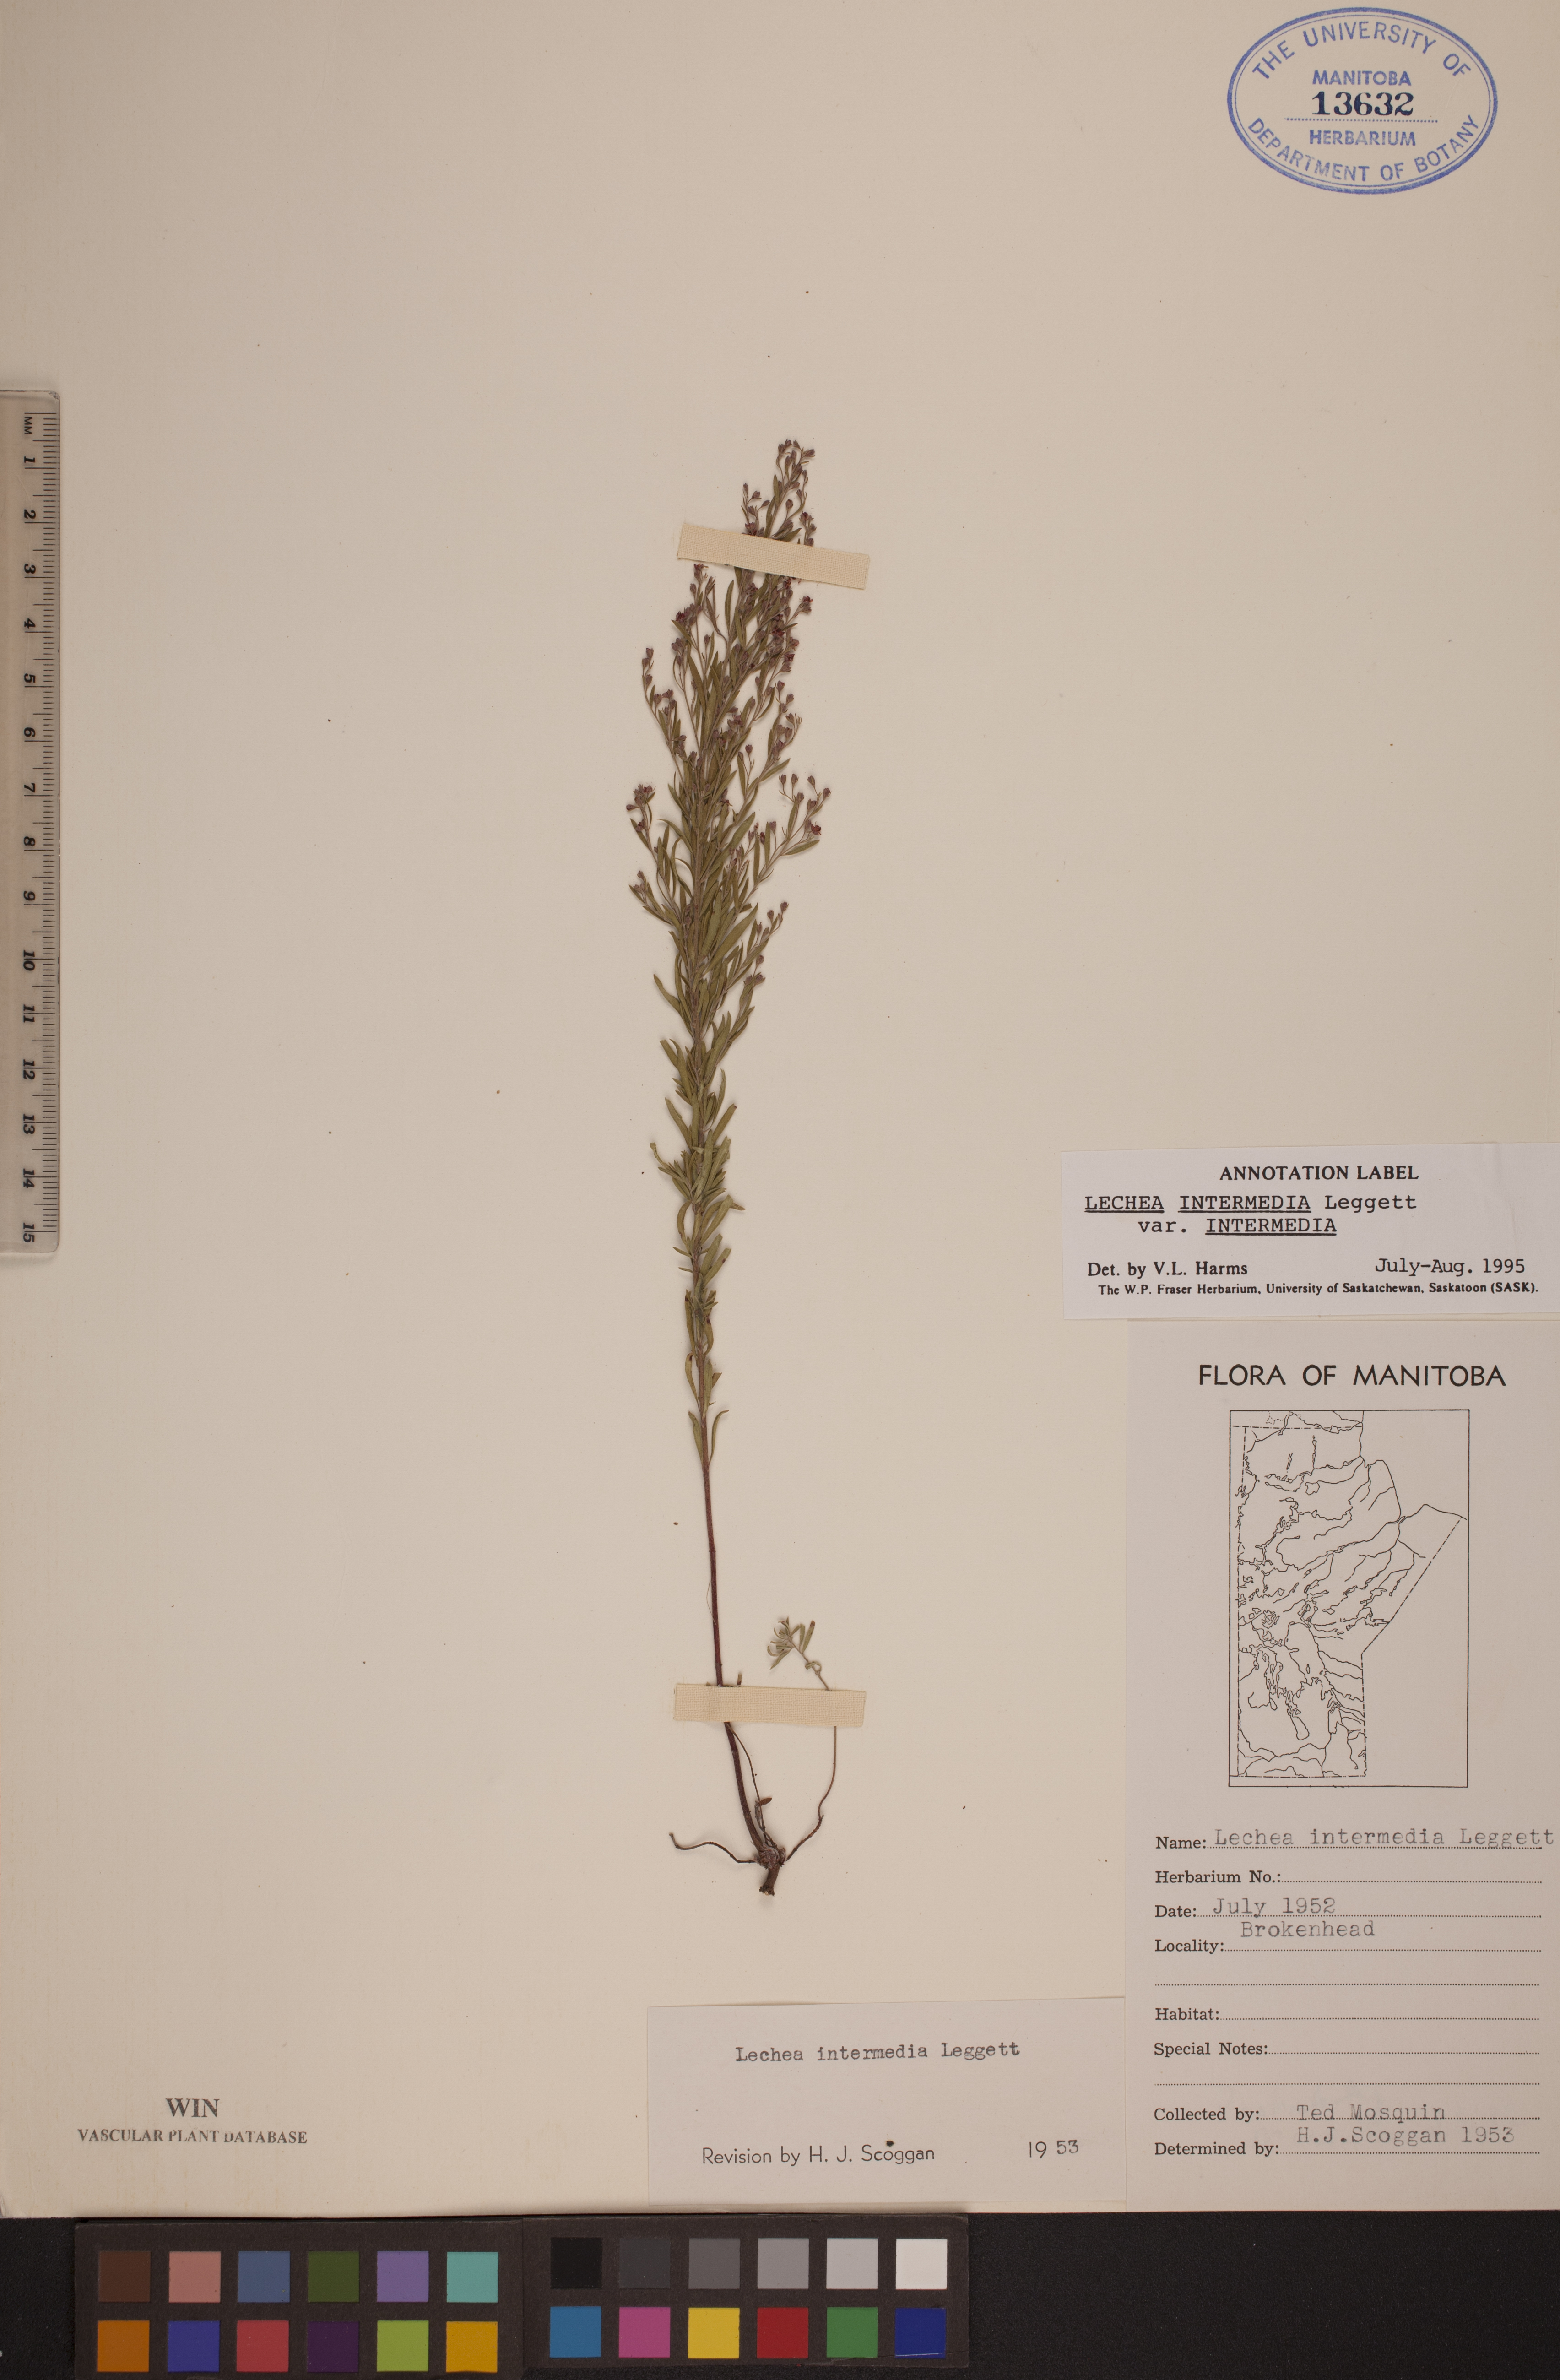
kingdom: Plantae
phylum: Tracheophyta
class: Magnoliopsida
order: Malvales
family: Cistaceae
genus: Lechea
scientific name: Lechea intermedia
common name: Intermediate pinweed
